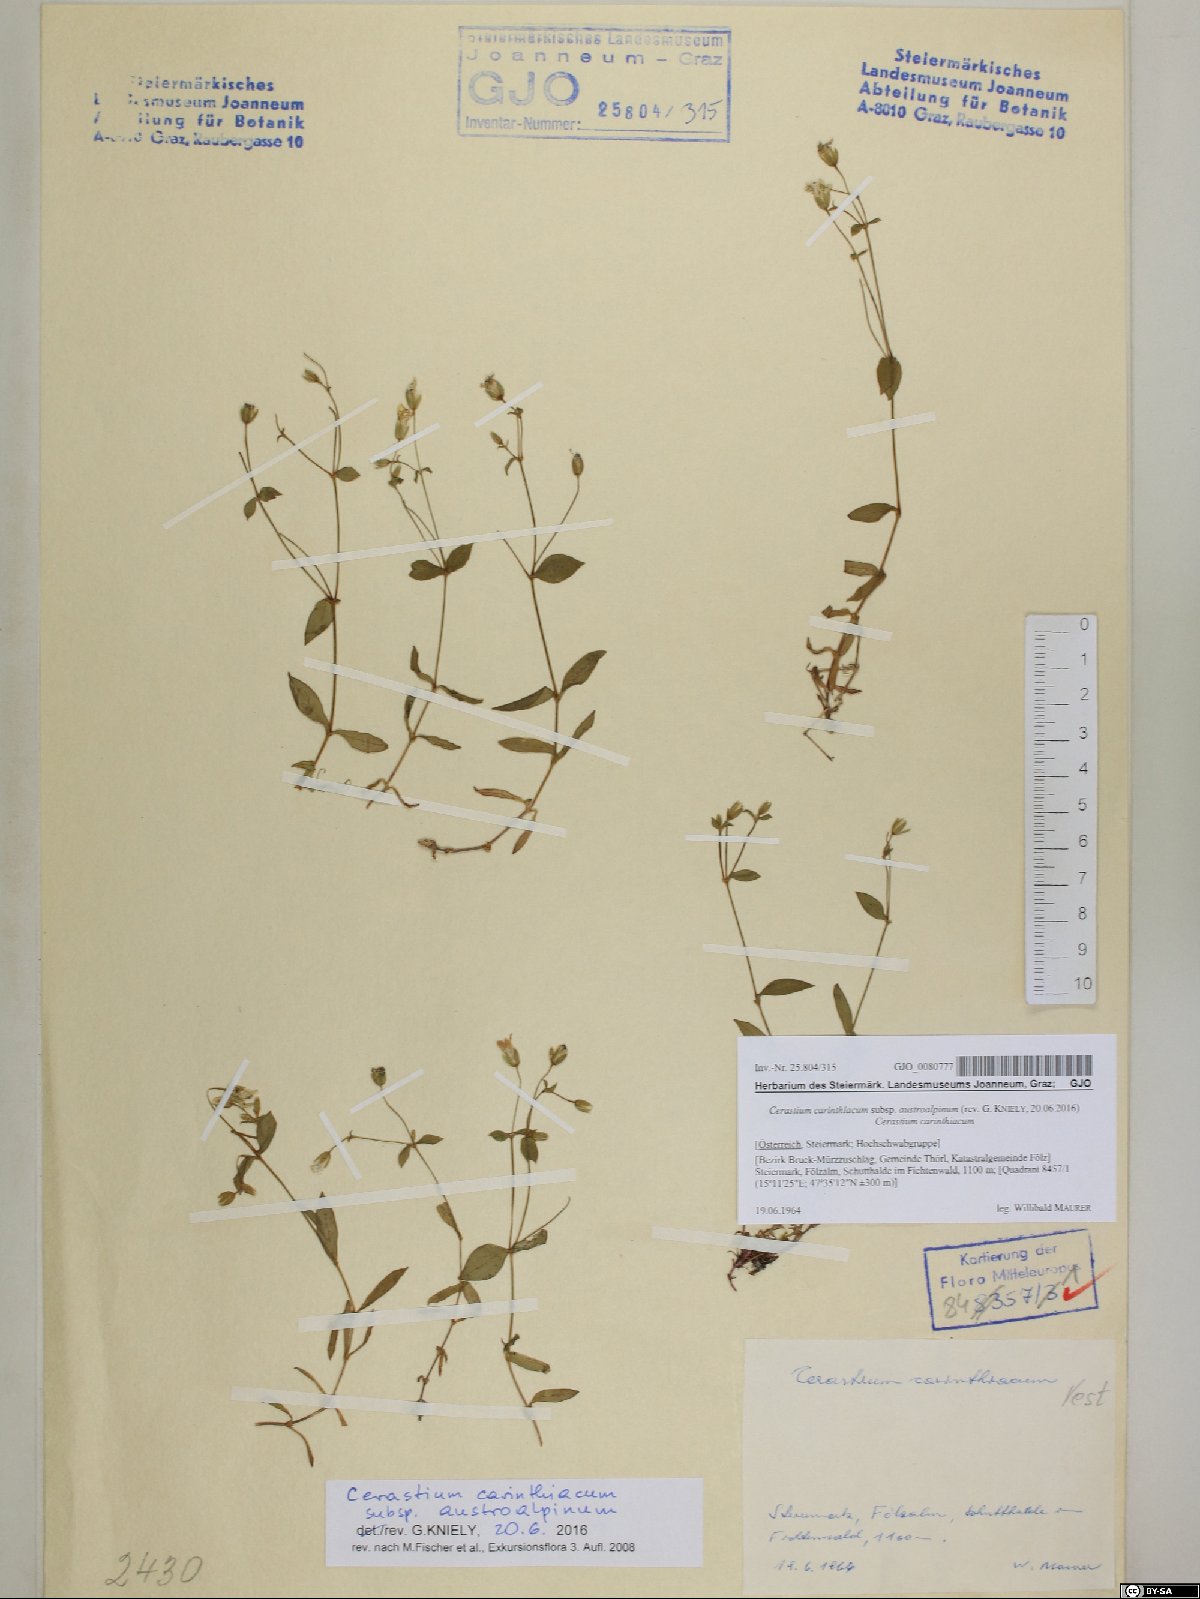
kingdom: Plantae
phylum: Tracheophyta
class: Magnoliopsida
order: Caryophyllales
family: Caryophyllaceae
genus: Cerastium
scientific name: Cerastium carinthiacum
